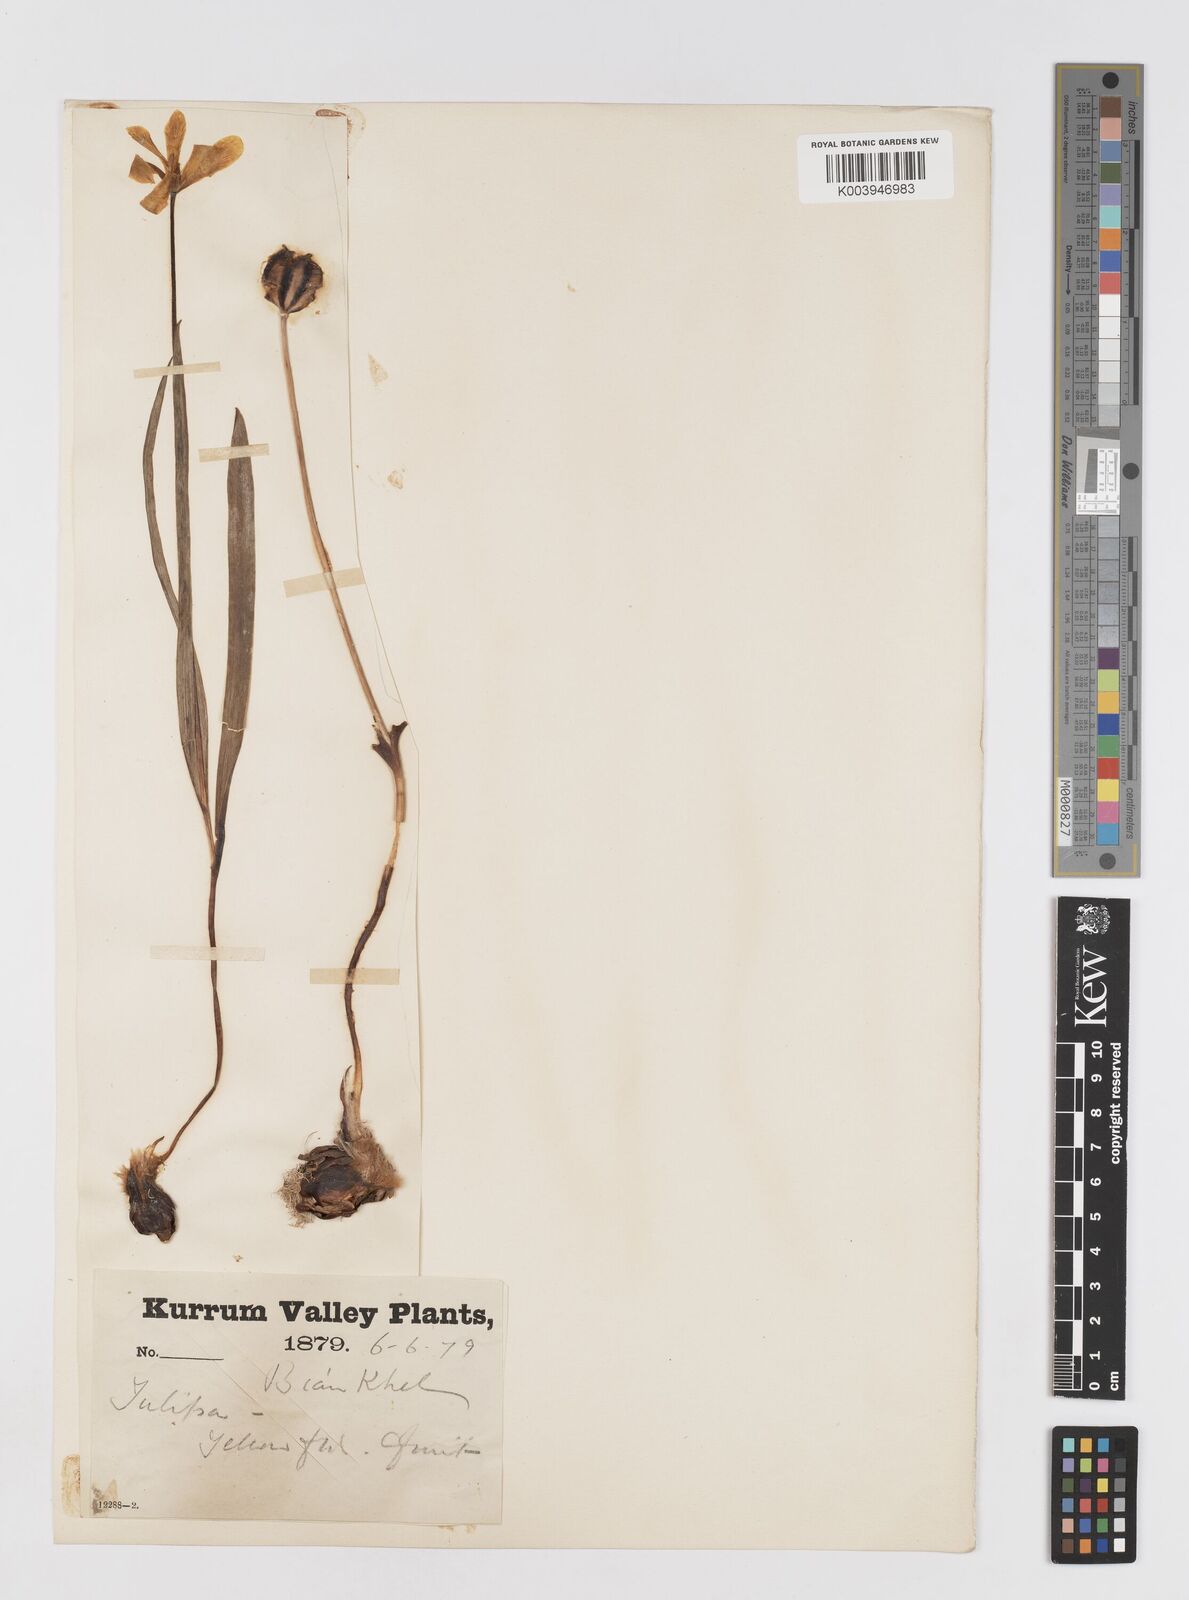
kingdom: Plantae
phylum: Tracheophyta
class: Liliopsida
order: Liliales
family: Liliaceae
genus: Tulipa
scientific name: Tulipa clusiana
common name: Lady tulip
